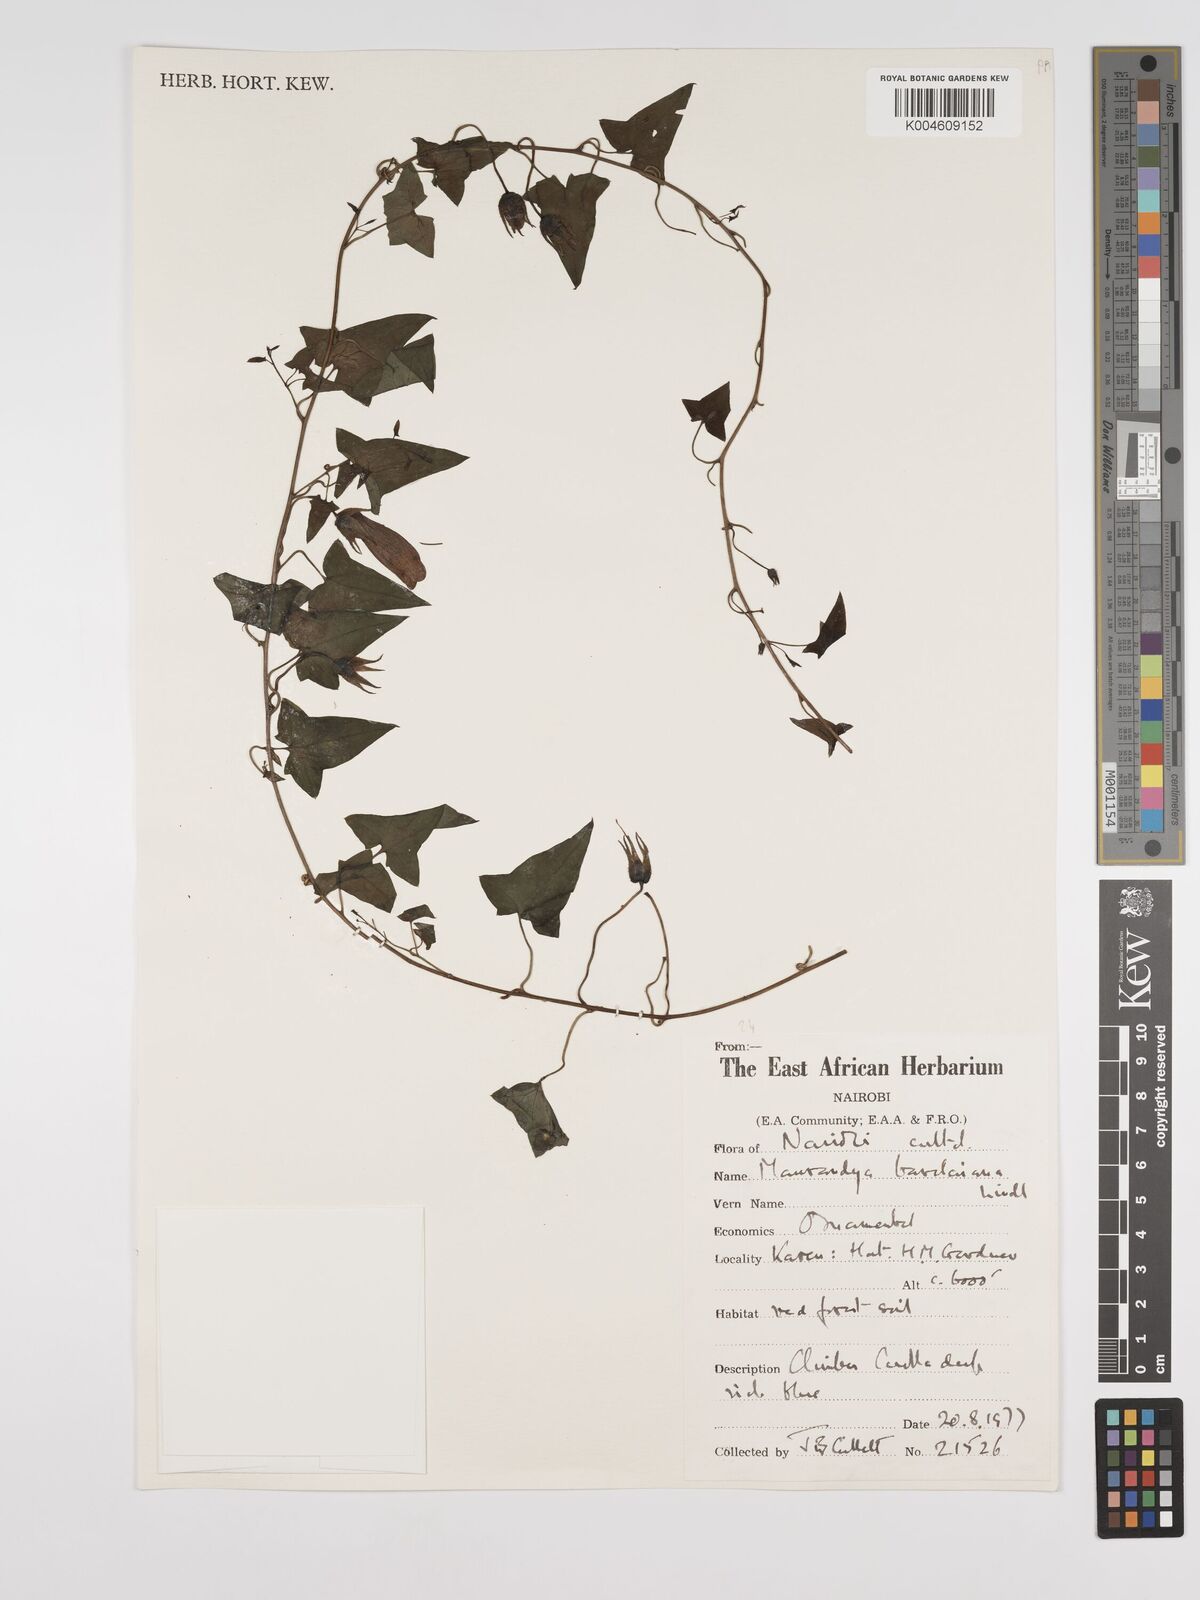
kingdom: Plantae
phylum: Tracheophyta
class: Magnoliopsida
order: Lamiales
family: Plantaginaceae
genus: Maurandya
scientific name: Maurandya barclayana
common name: Mexican viper
